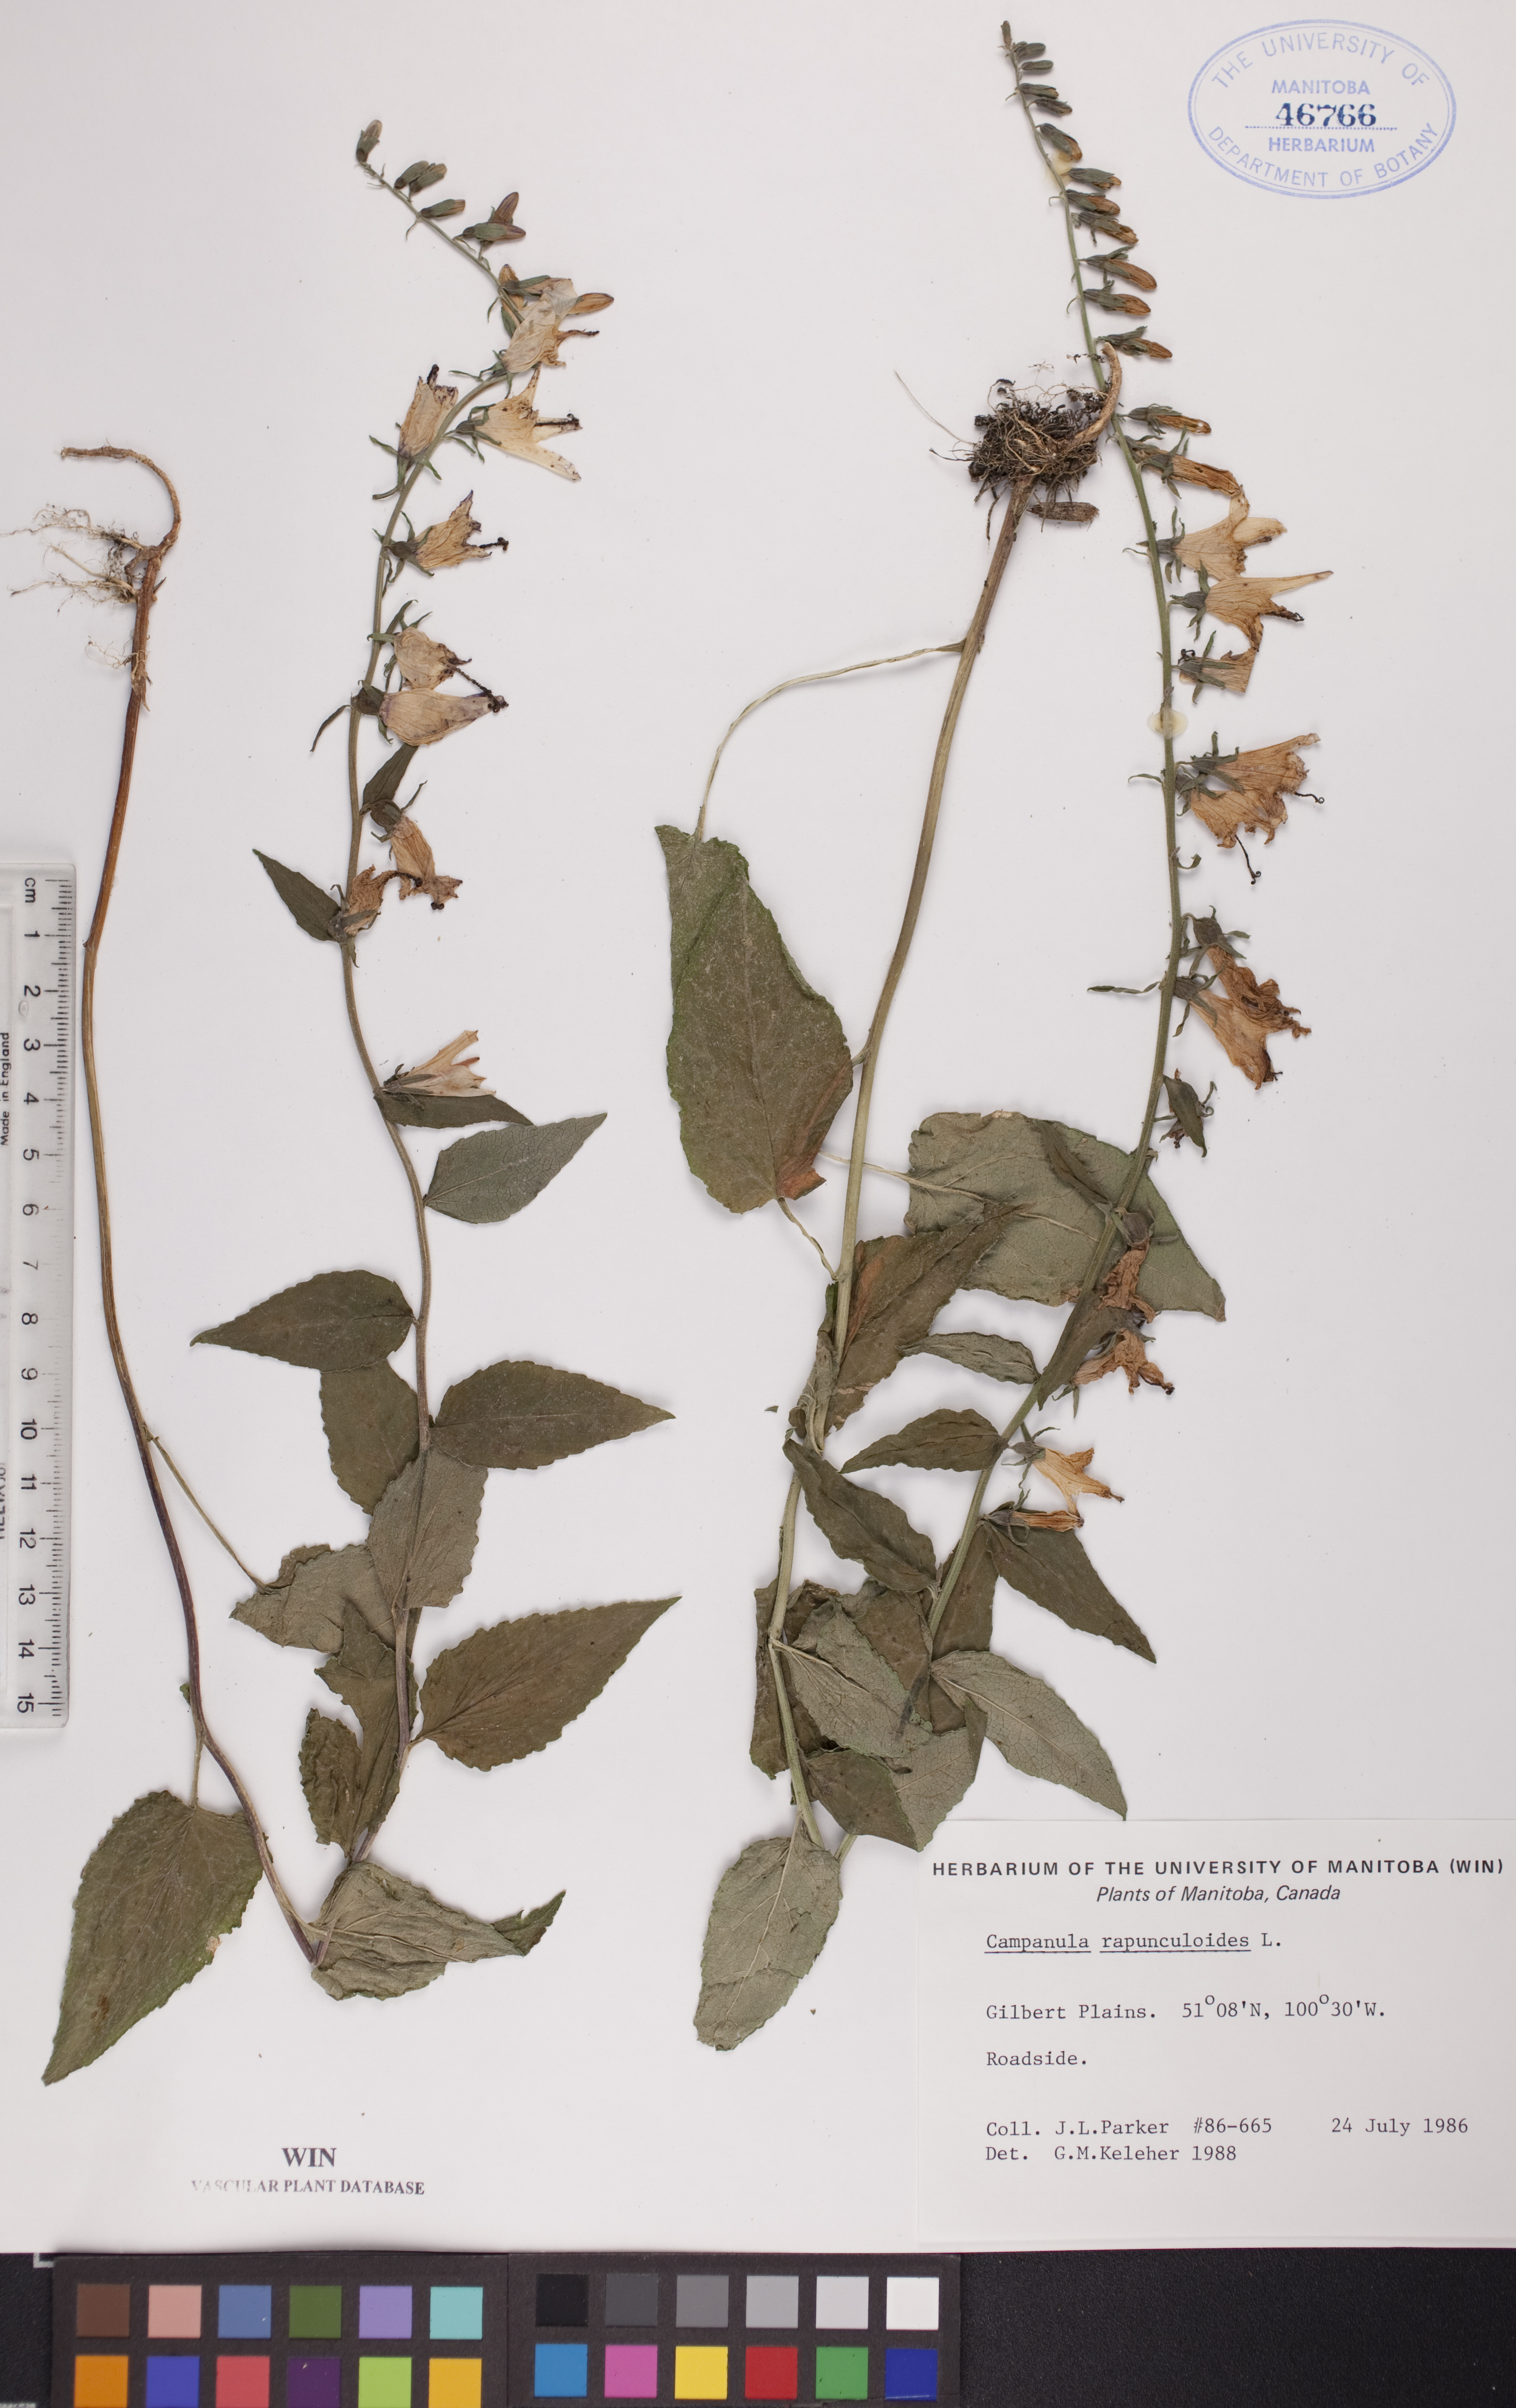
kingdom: Plantae
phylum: Tracheophyta
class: Magnoliopsida
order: Asterales
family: Campanulaceae
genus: Campanula
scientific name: Campanula rapunculoides
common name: Creeping bellflower
